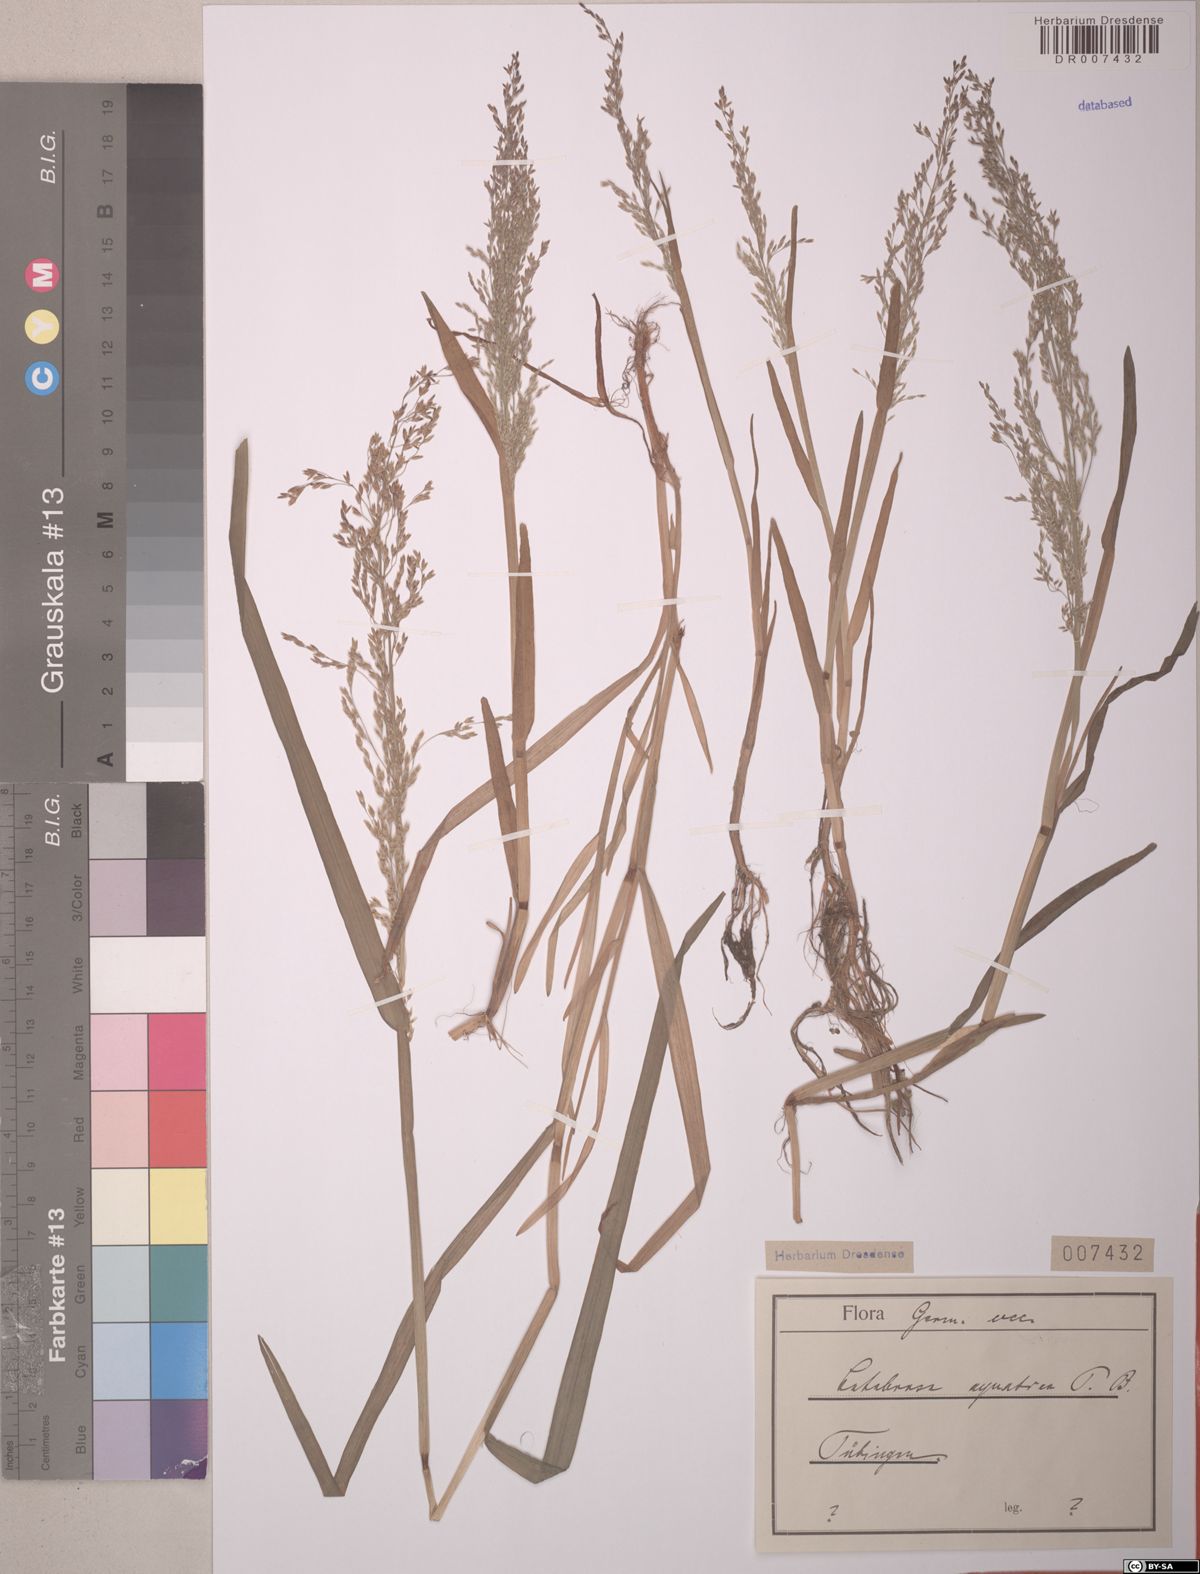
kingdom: Plantae
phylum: Tracheophyta
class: Liliopsida
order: Poales
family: Poaceae
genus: Catabrosa
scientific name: Catabrosa aquatica
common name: Whorl-grass
